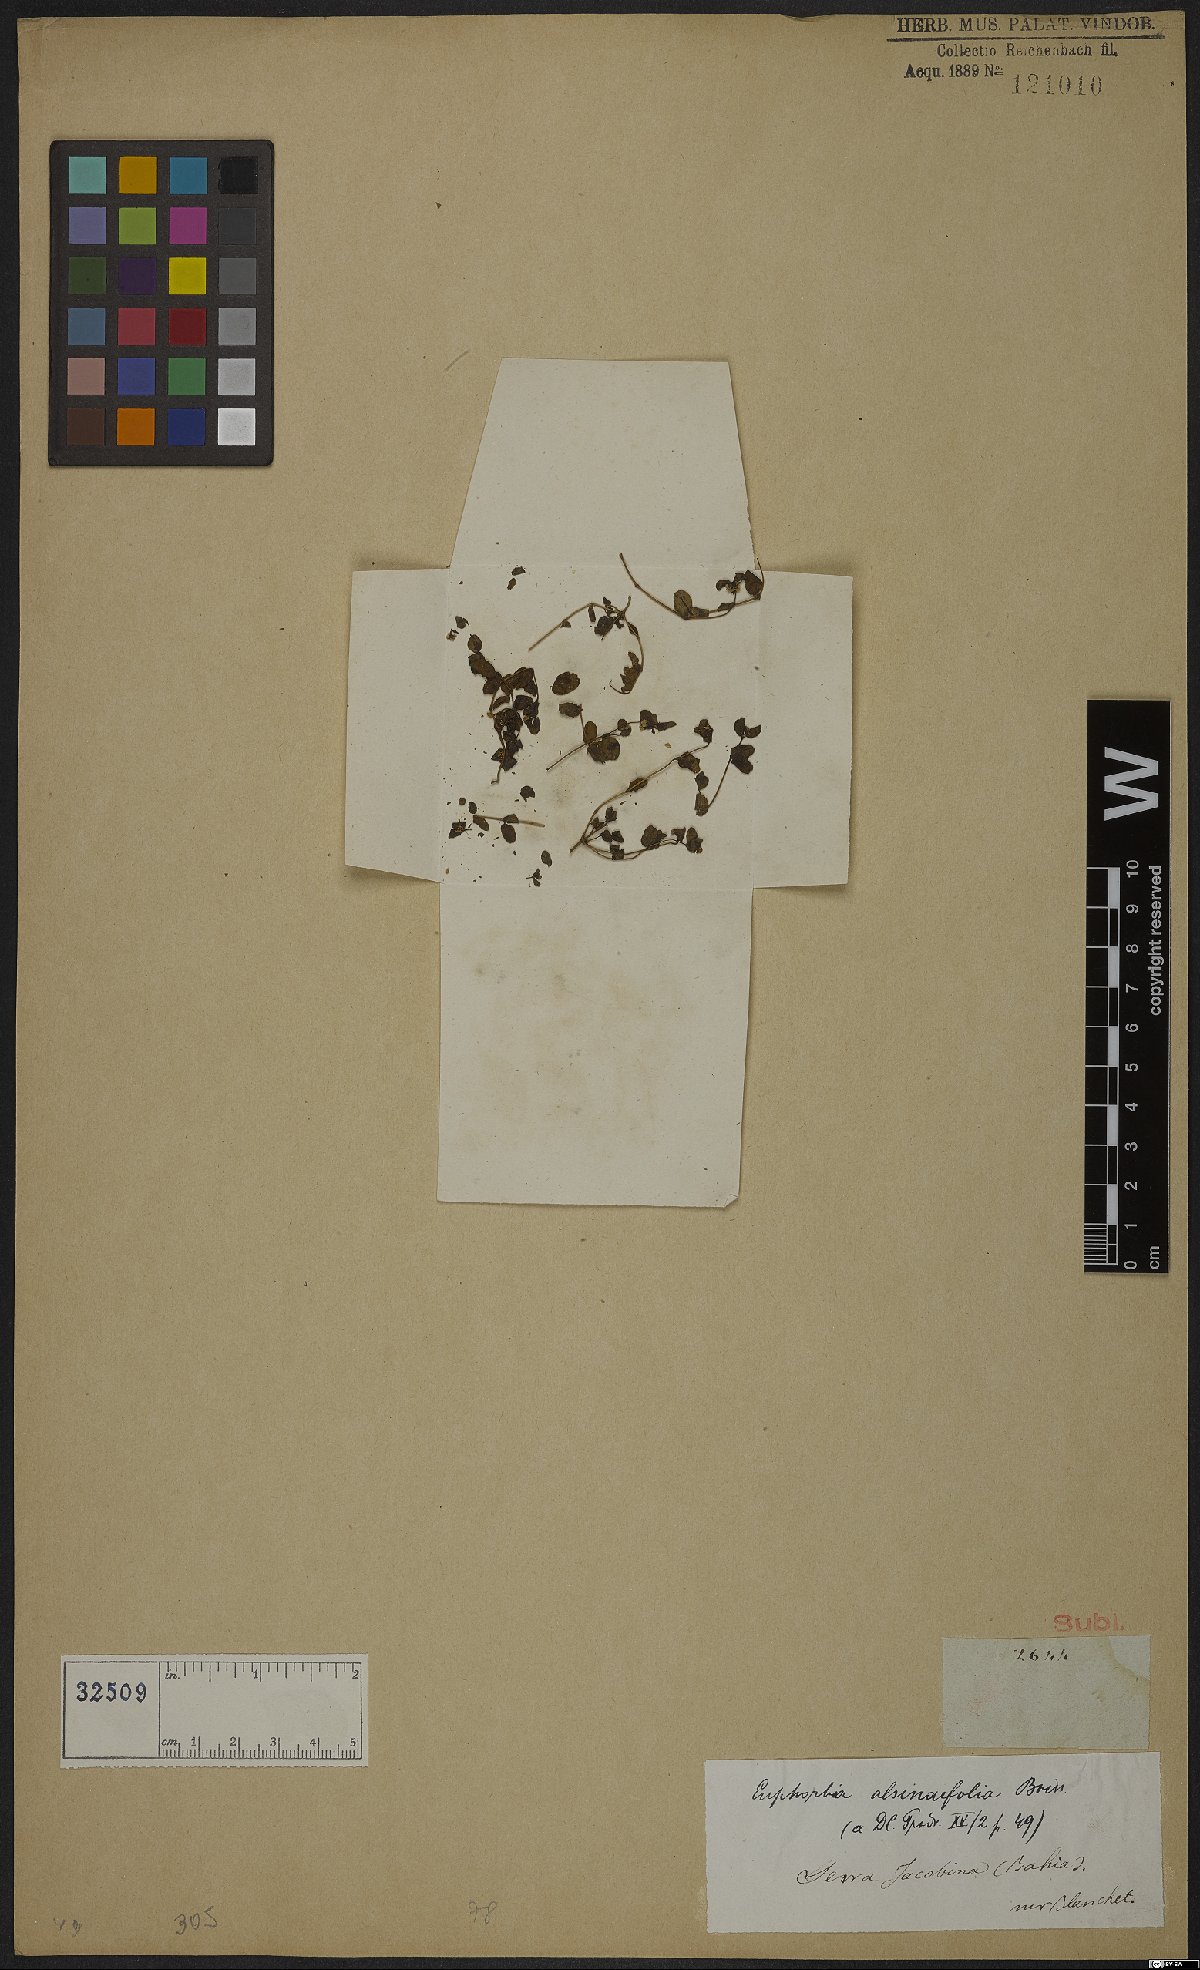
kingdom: Plantae
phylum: Tracheophyta
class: Magnoliopsida
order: Malpighiales
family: Euphorbiaceae
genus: Euphorbia
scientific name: Euphorbia
